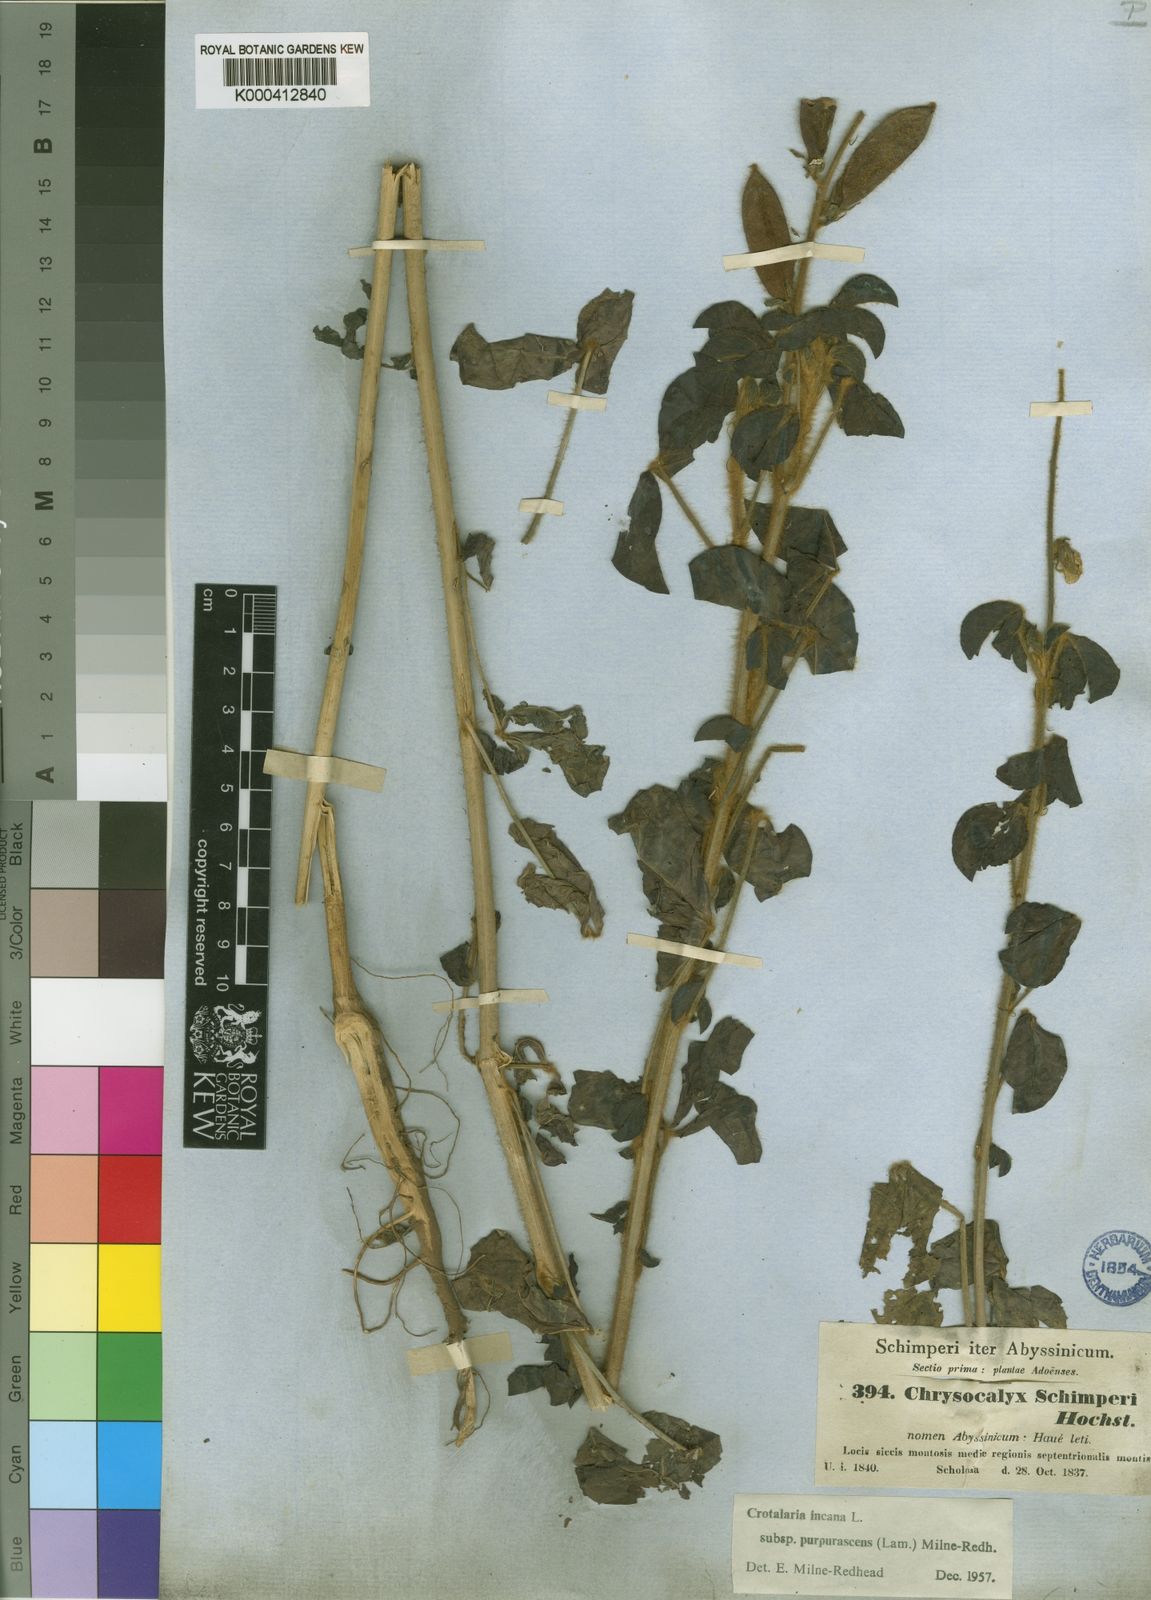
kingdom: Plantae
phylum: Tracheophyta
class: Magnoliopsida
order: Fabales
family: Fabaceae
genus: Crotalaria
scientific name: Crotalaria incana
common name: Shakeshake
